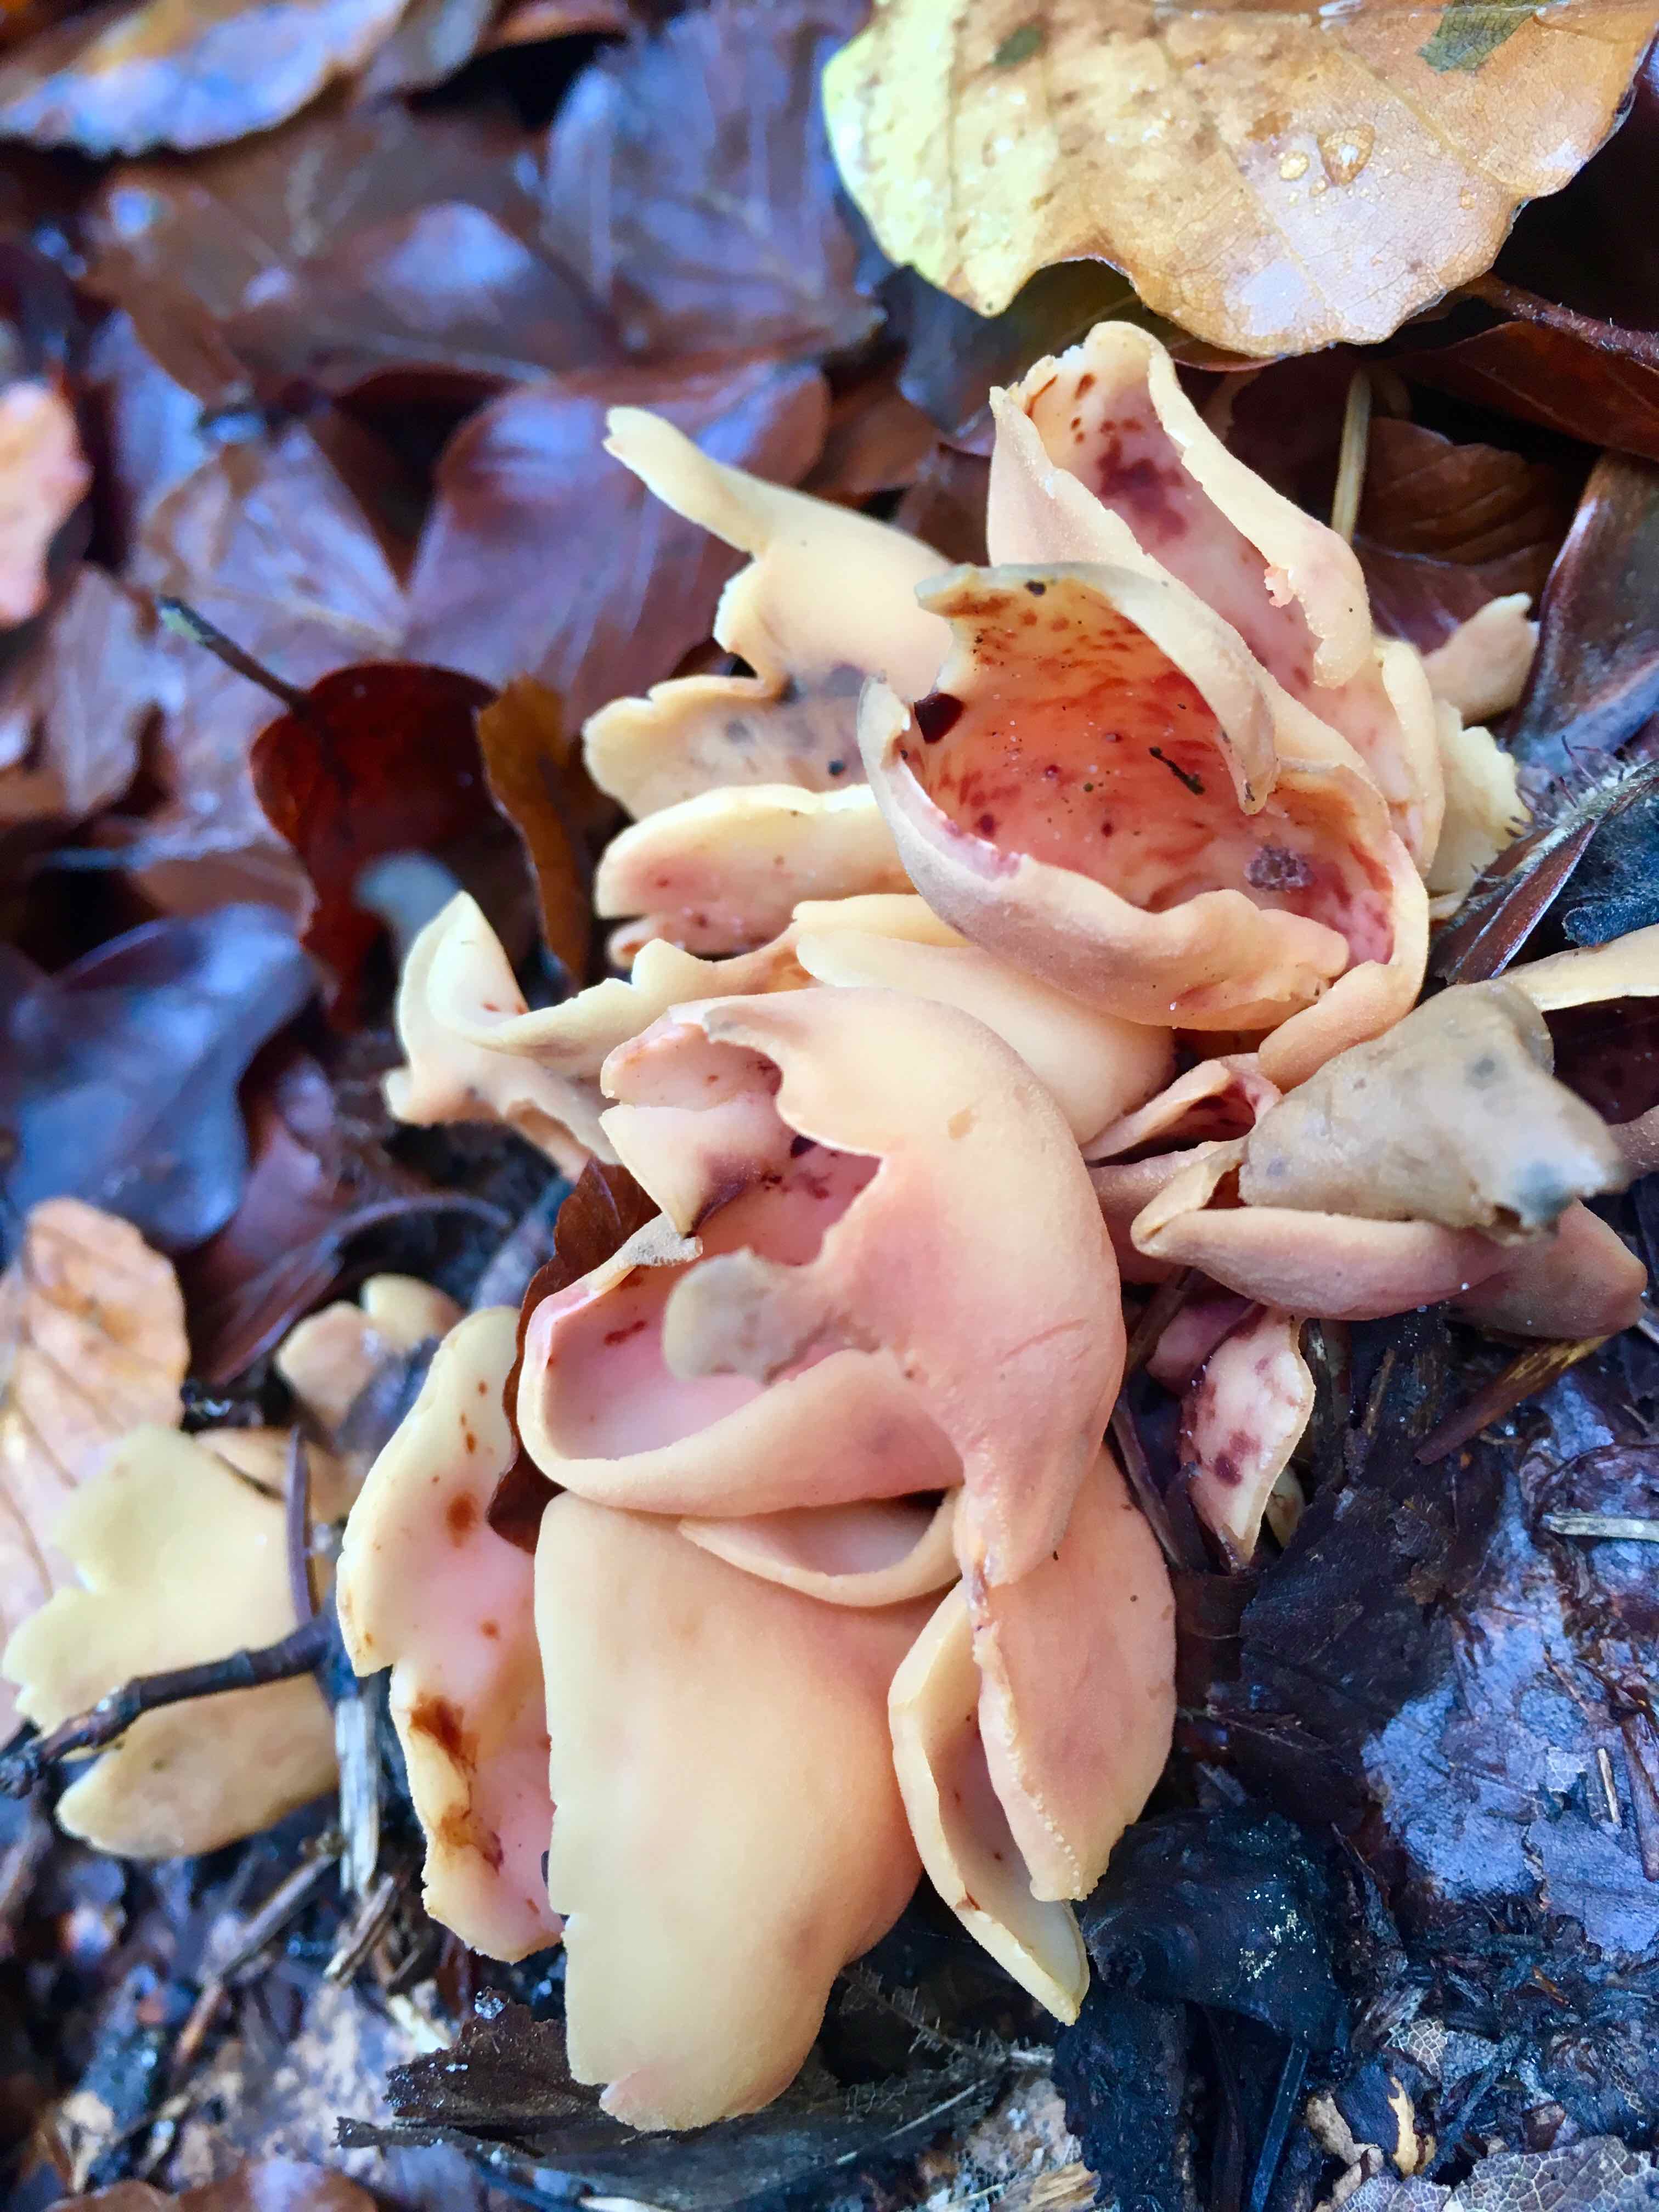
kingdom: Fungi
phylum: Ascomycota
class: Pezizomycetes
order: Pezizales
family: Otideaceae
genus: Otidea
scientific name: Otidea onotica
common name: æsel-ørebæger
